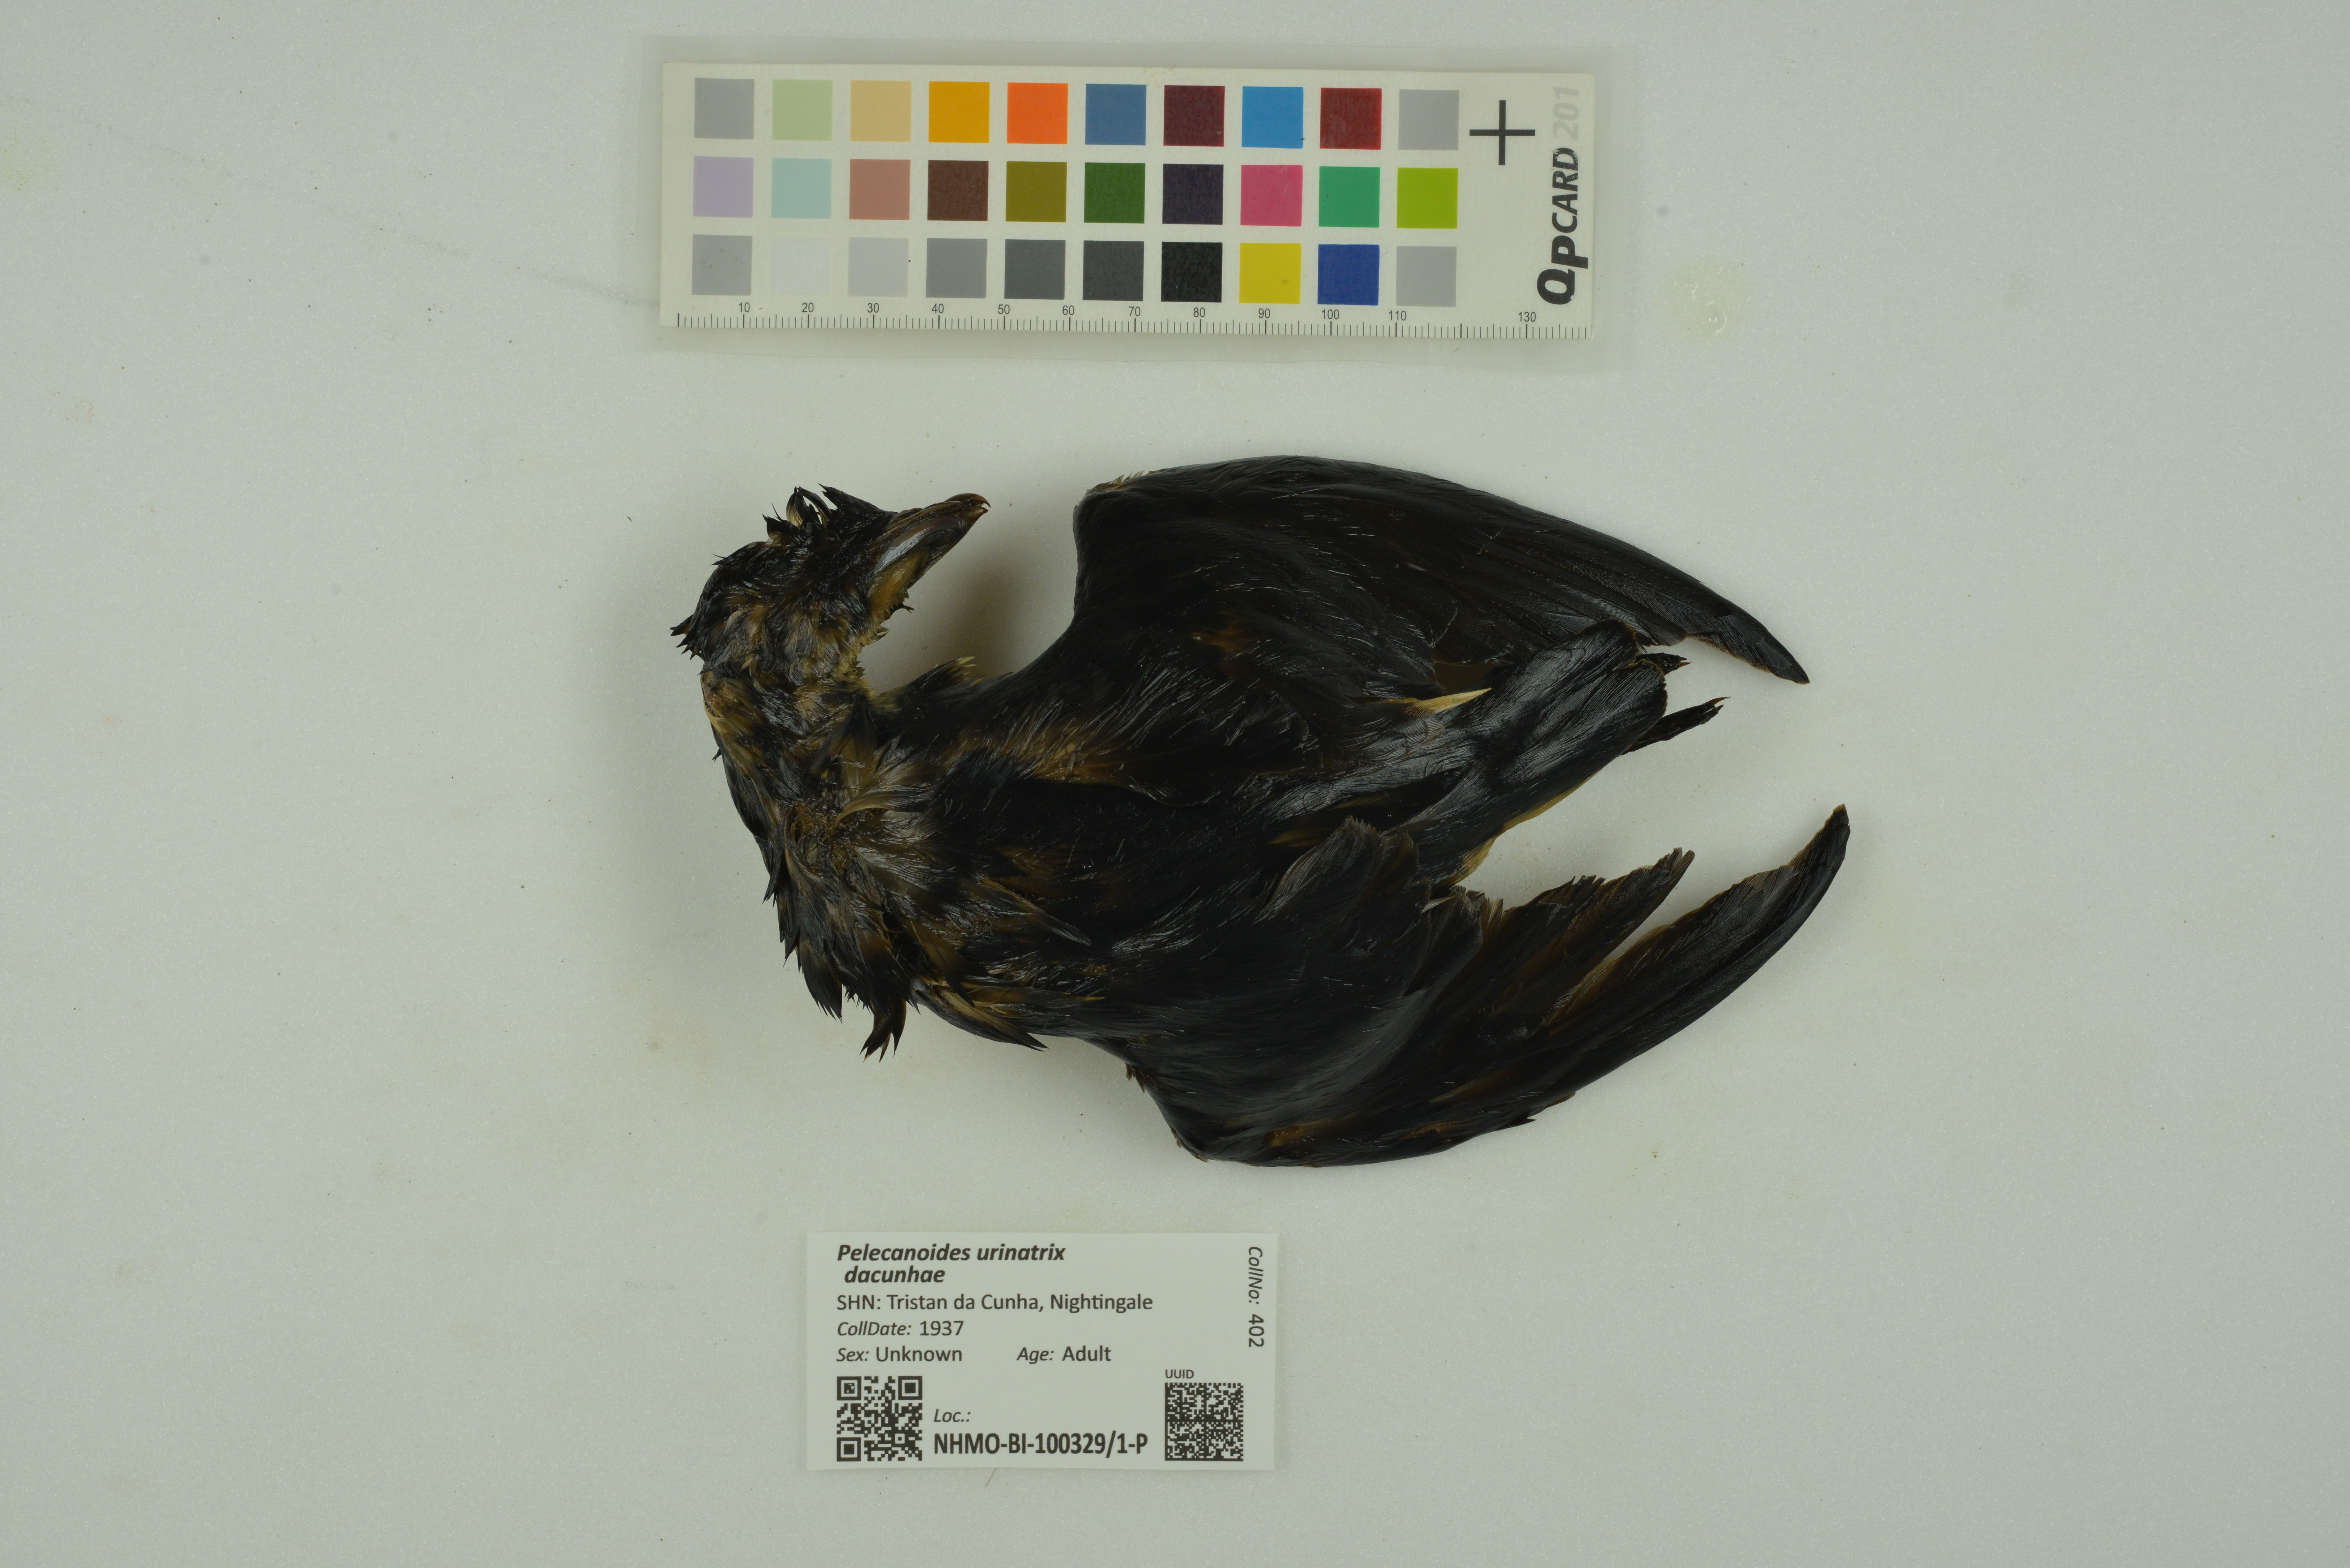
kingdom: Animalia
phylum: Chordata
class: Aves
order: Procellariiformes
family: Pelecanoididae
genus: Pelecanoides
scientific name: Pelecanoides urinatrix
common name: Common diving-petrel
